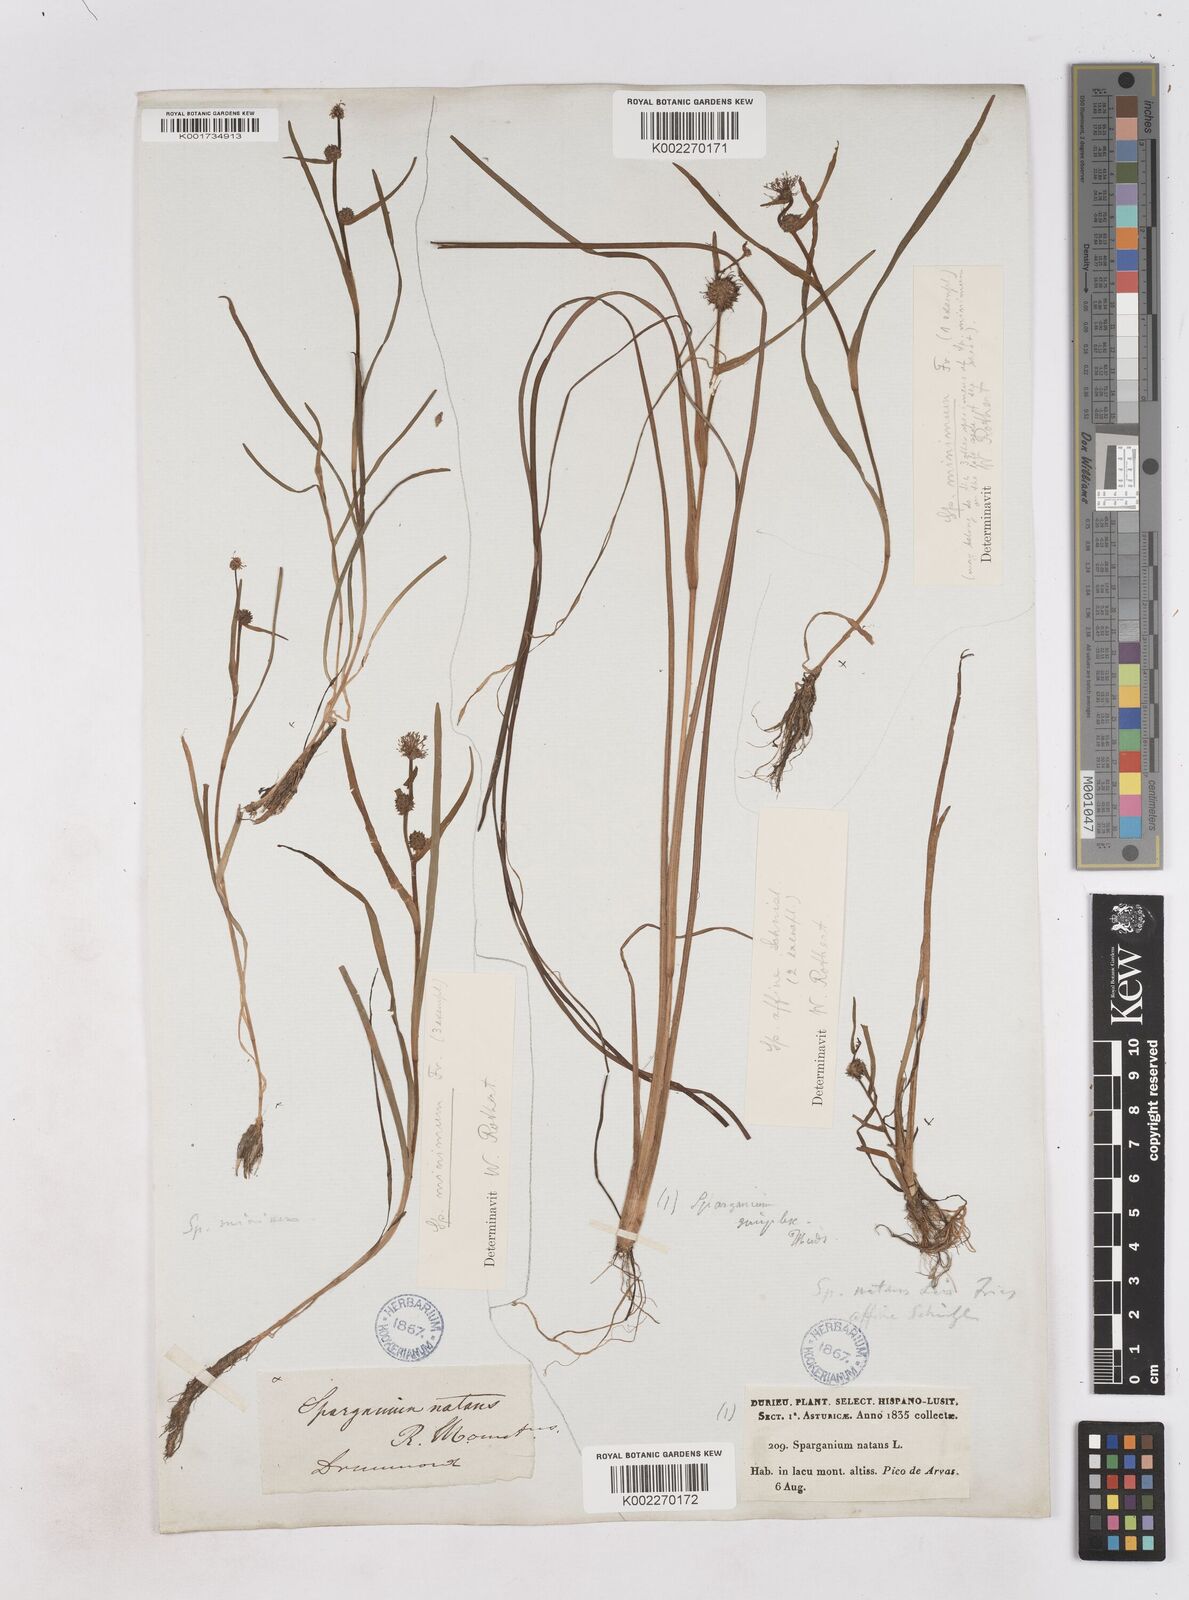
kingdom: Plantae
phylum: Tracheophyta
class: Liliopsida
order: Poales
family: Typhaceae
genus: Sparganium
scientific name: Sparganium natans
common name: Least bur-reed
